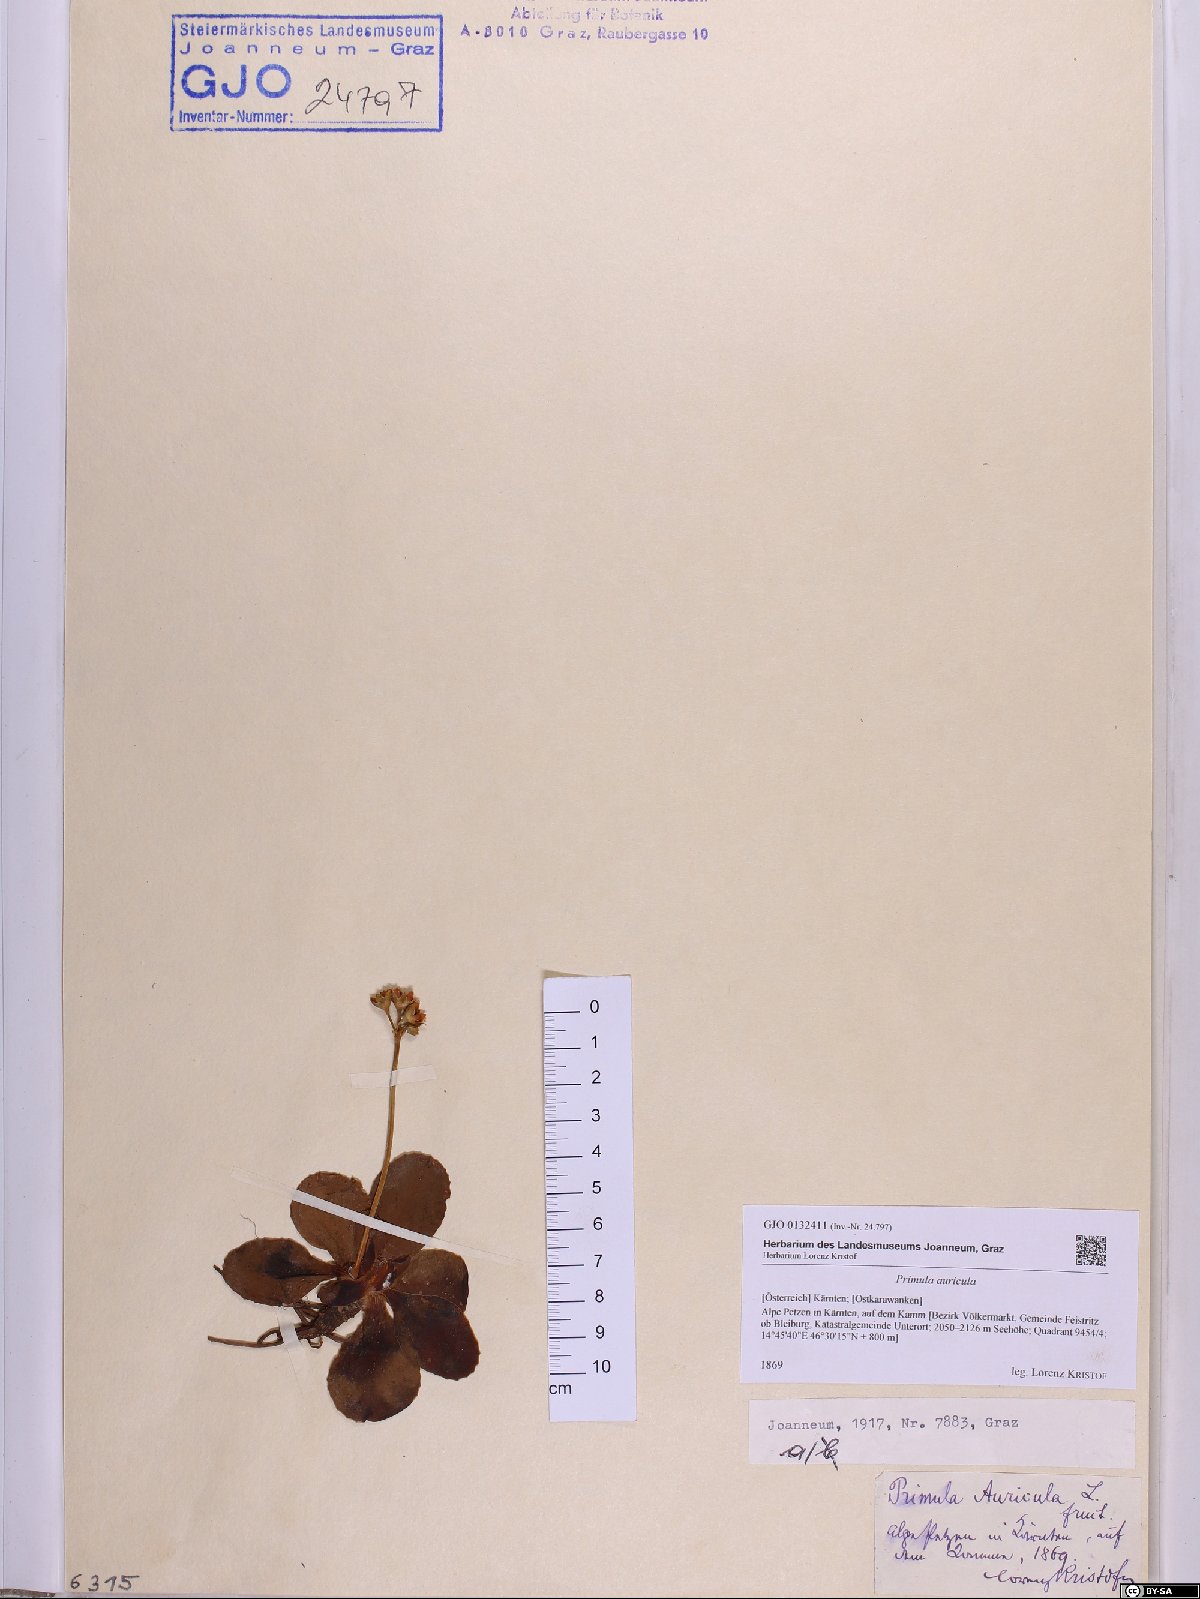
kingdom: Plantae
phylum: Tracheophyta
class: Magnoliopsida
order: Ericales
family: Primulaceae
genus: Primula
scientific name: Primula auricula
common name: Auricula
